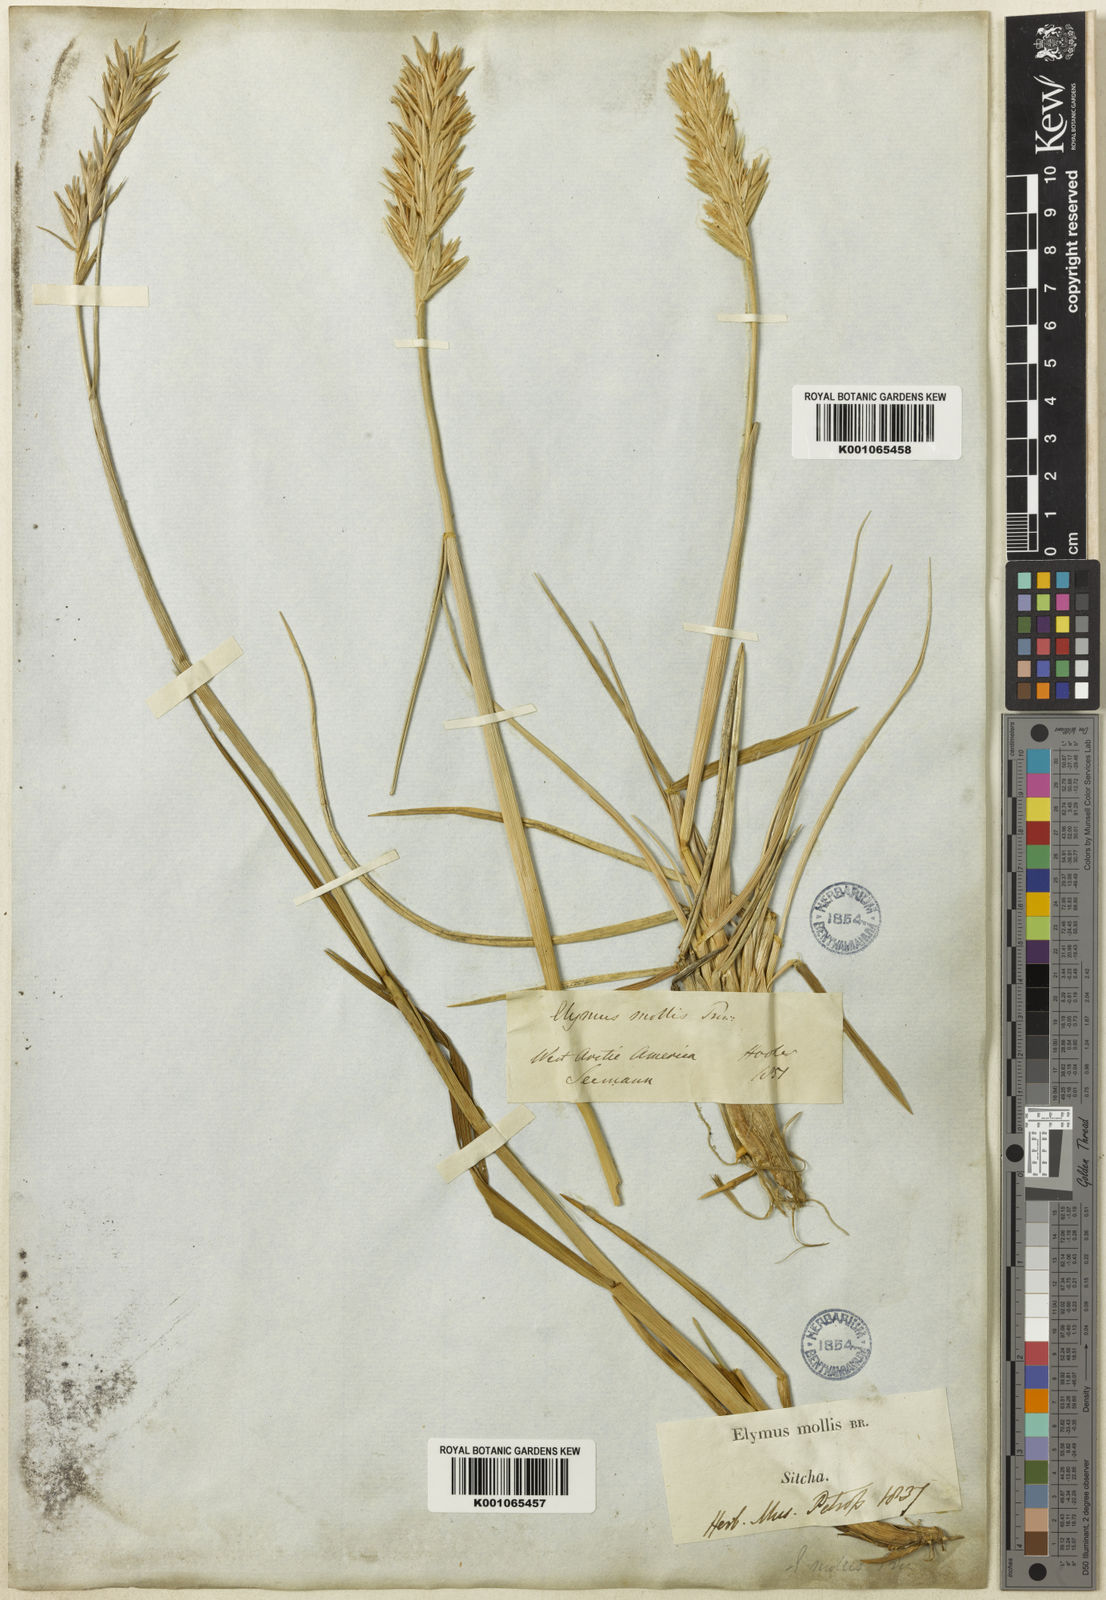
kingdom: Plantae
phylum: Tracheophyta
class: Liliopsida
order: Poales
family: Poaceae
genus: Leymus
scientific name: Leymus mollis
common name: American dune grass
